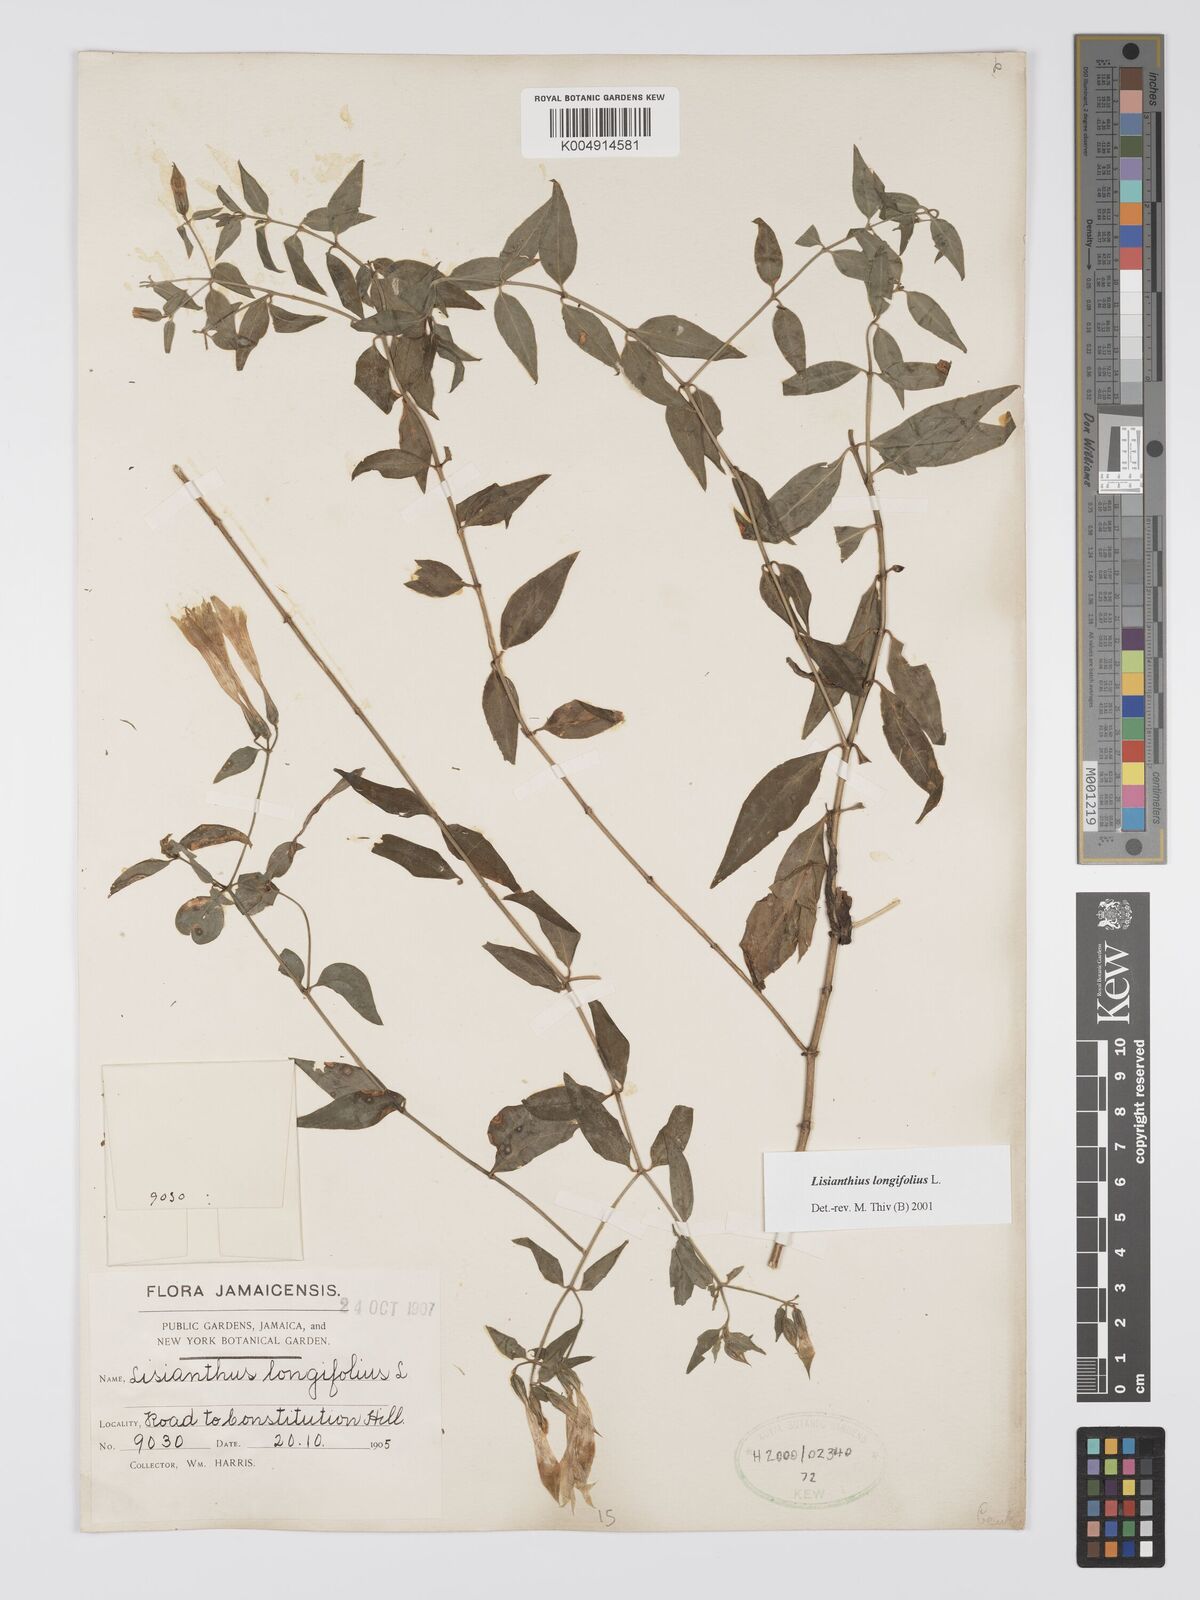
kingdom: Plantae
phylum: Tracheophyta
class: Magnoliopsida
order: Gentianales
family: Gentianaceae
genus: Lisianthus
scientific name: Lisianthus longifolius
